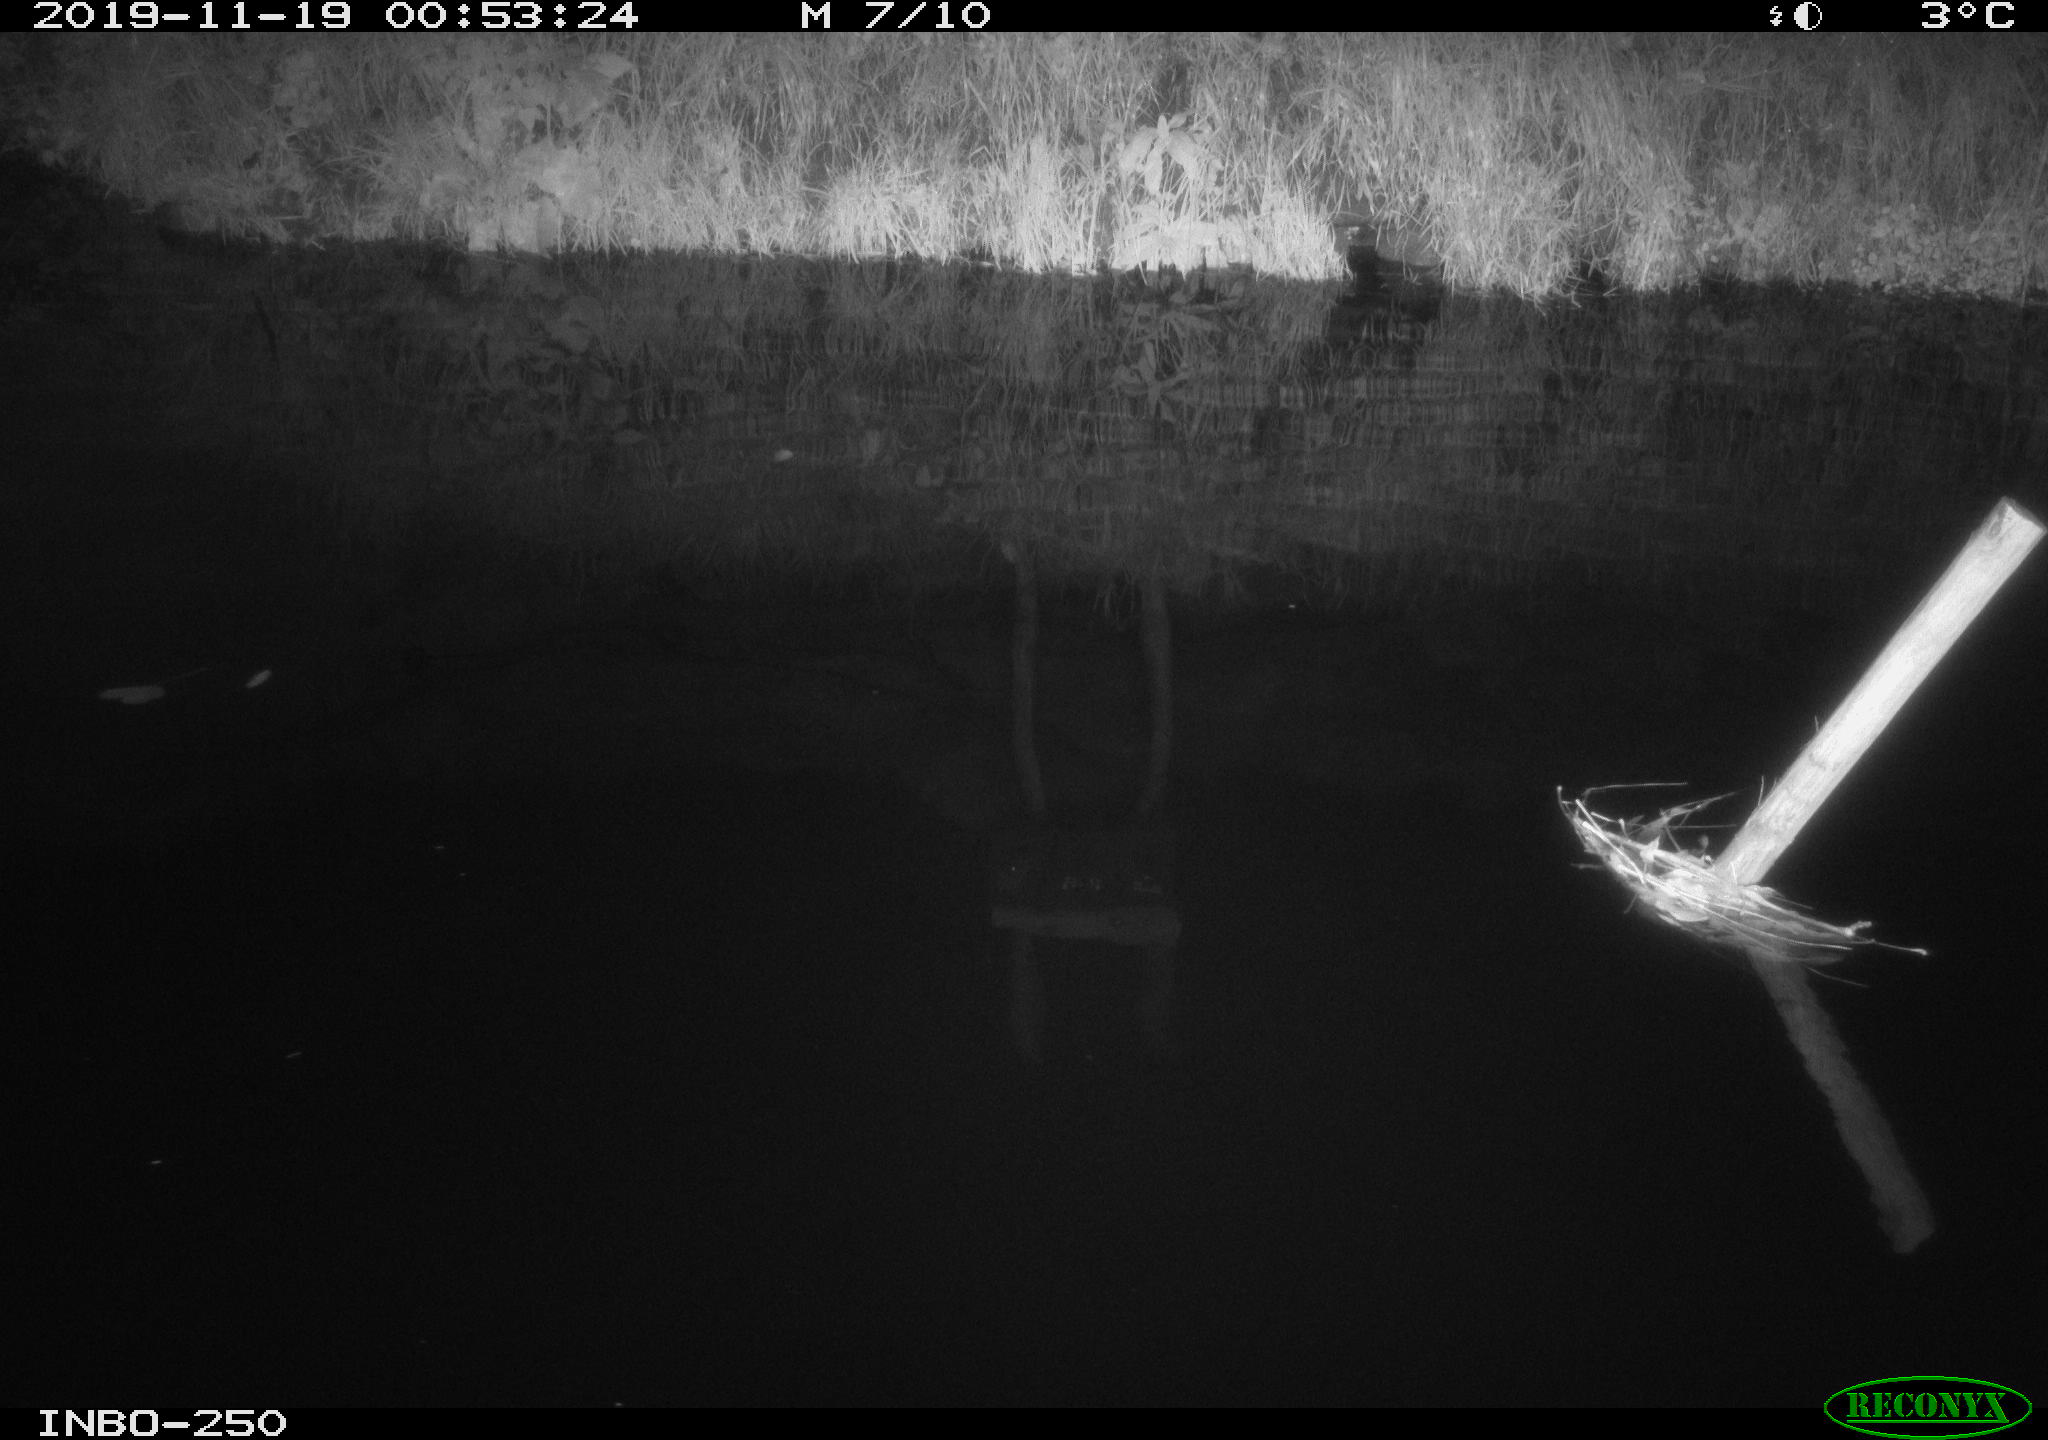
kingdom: Animalia
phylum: Chordata
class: Aves
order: Anseriformes
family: Anatidae
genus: Anas
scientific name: Anas platyrhynchos
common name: Mallard
